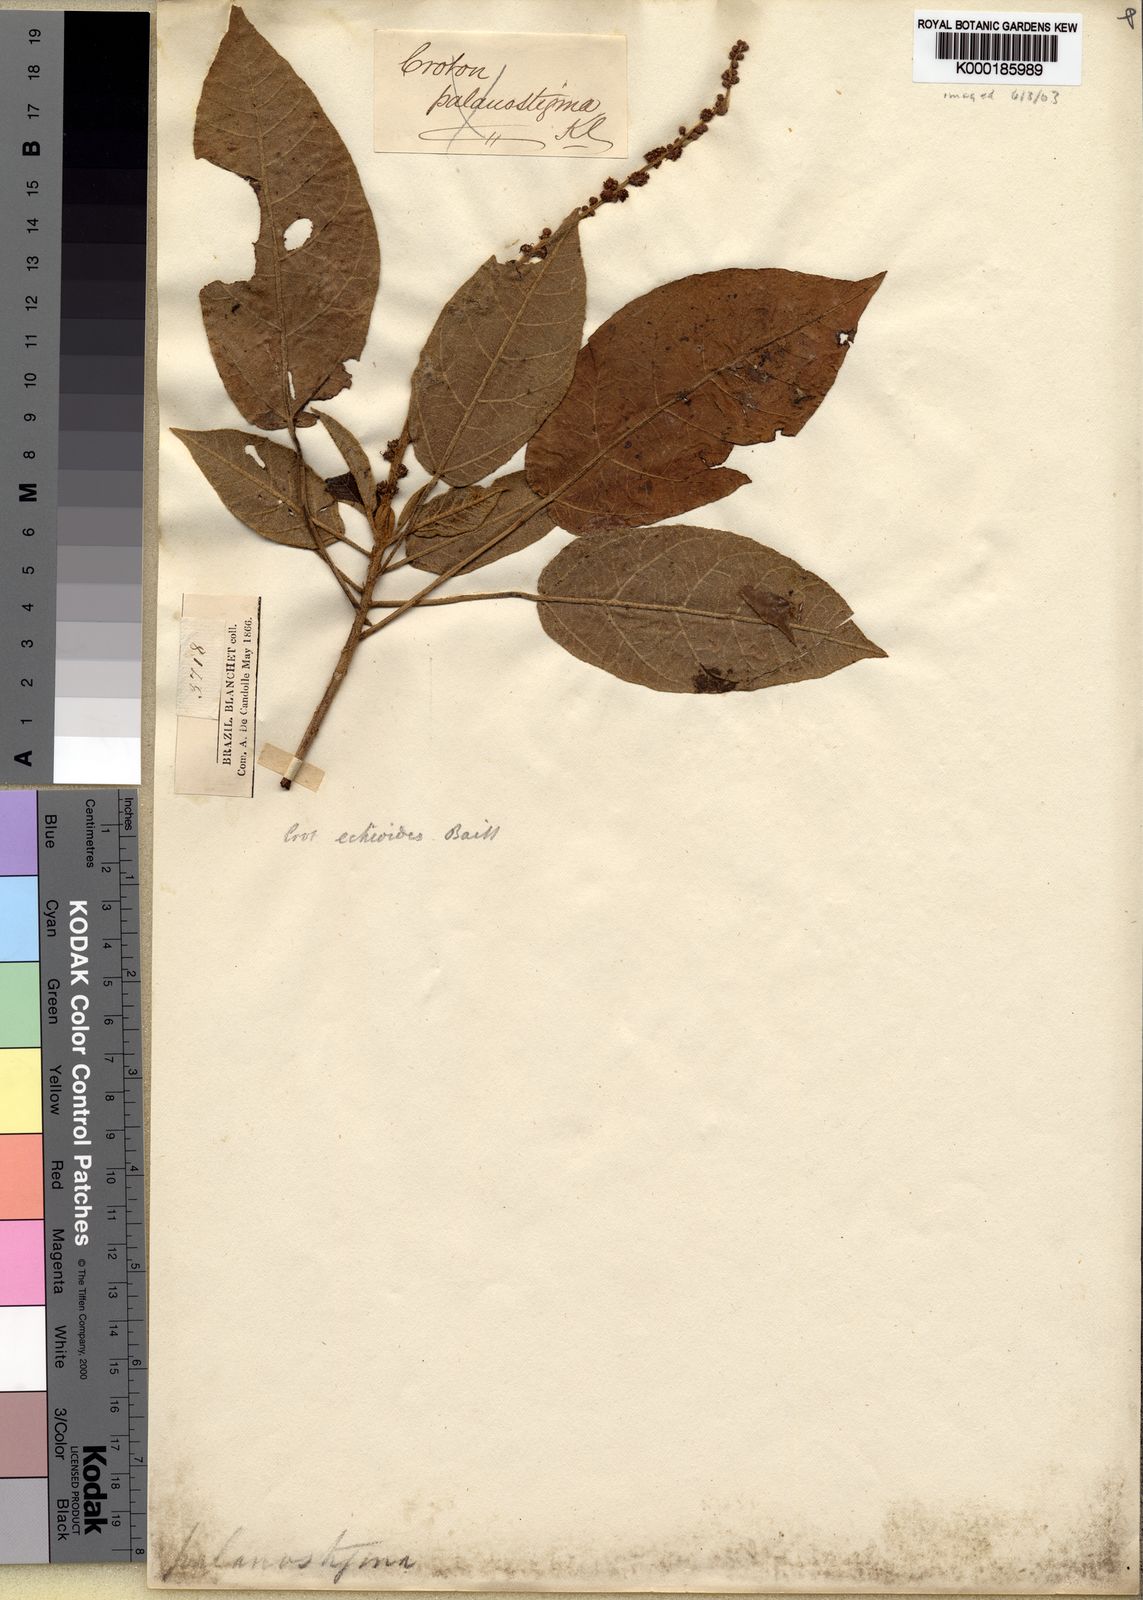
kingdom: Plantae
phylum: Tracheophyta
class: Magnoliopsida
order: Malpighiales
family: Euphorbiaceae
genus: Croton
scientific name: Croton
